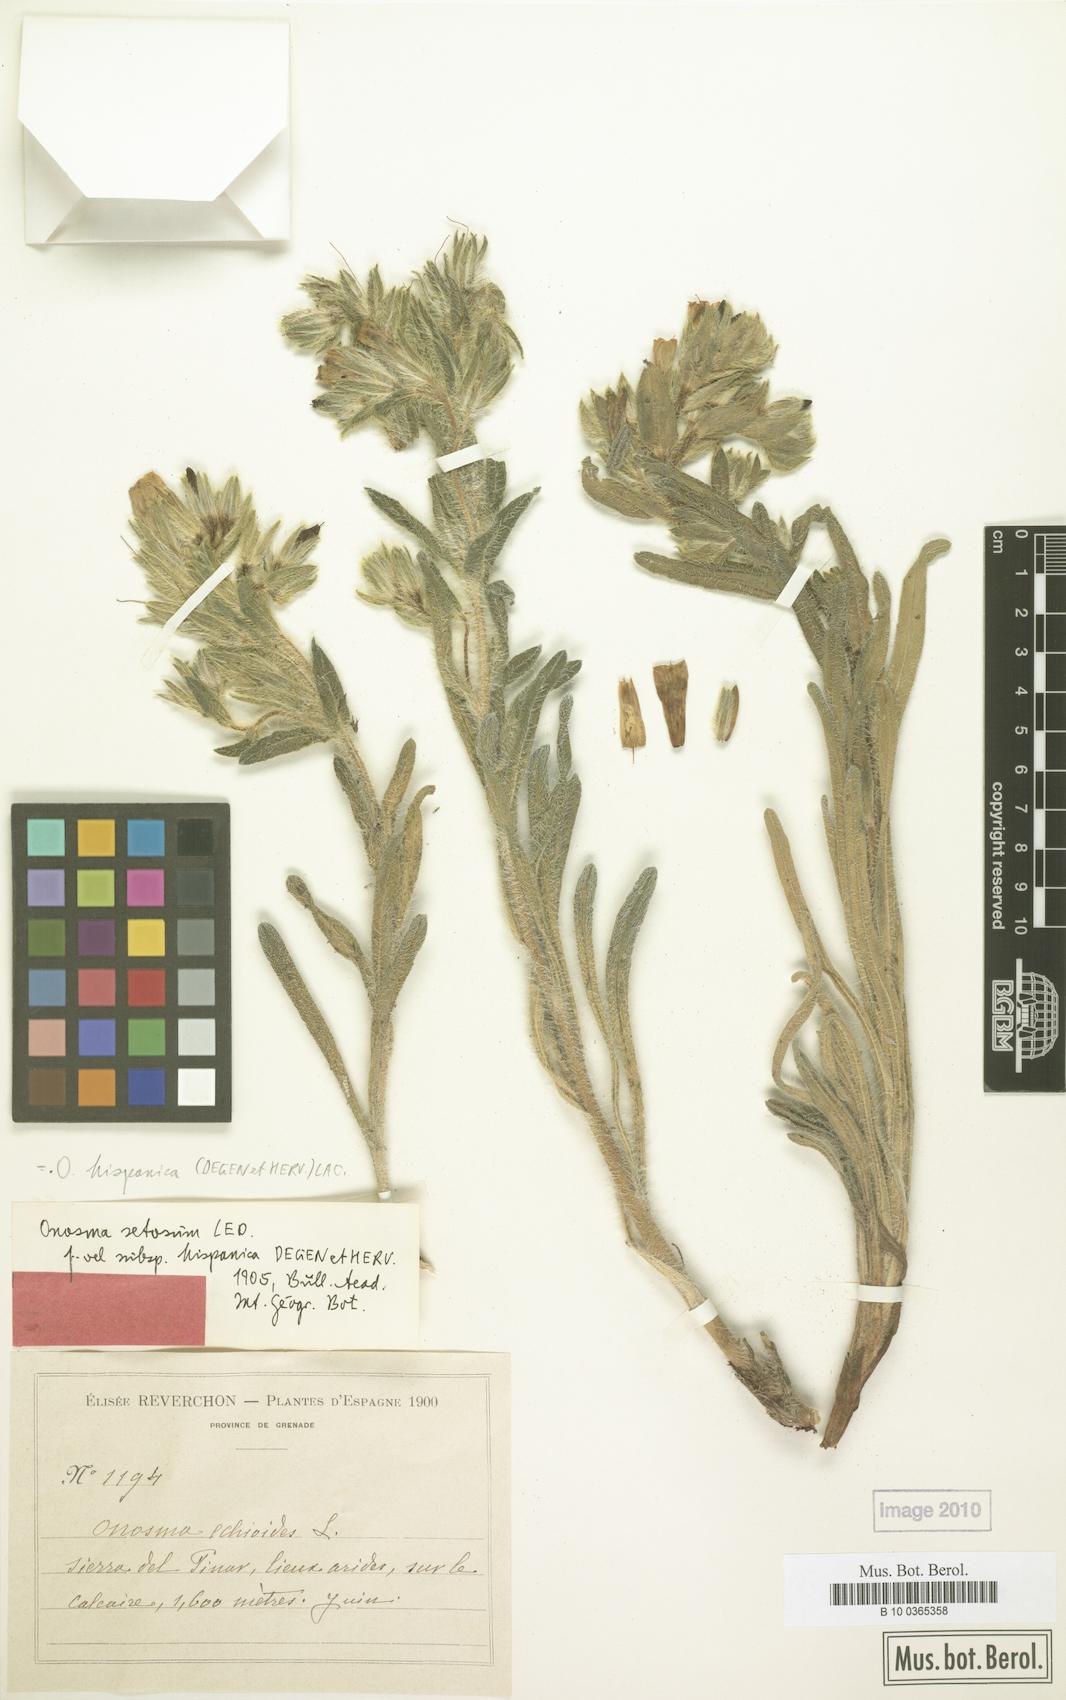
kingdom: Plantae
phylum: Tracheophyta
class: Magnoliopsida
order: Boraginales
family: Boraginaceae
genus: Onosma
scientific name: Onosma tricerosperma
